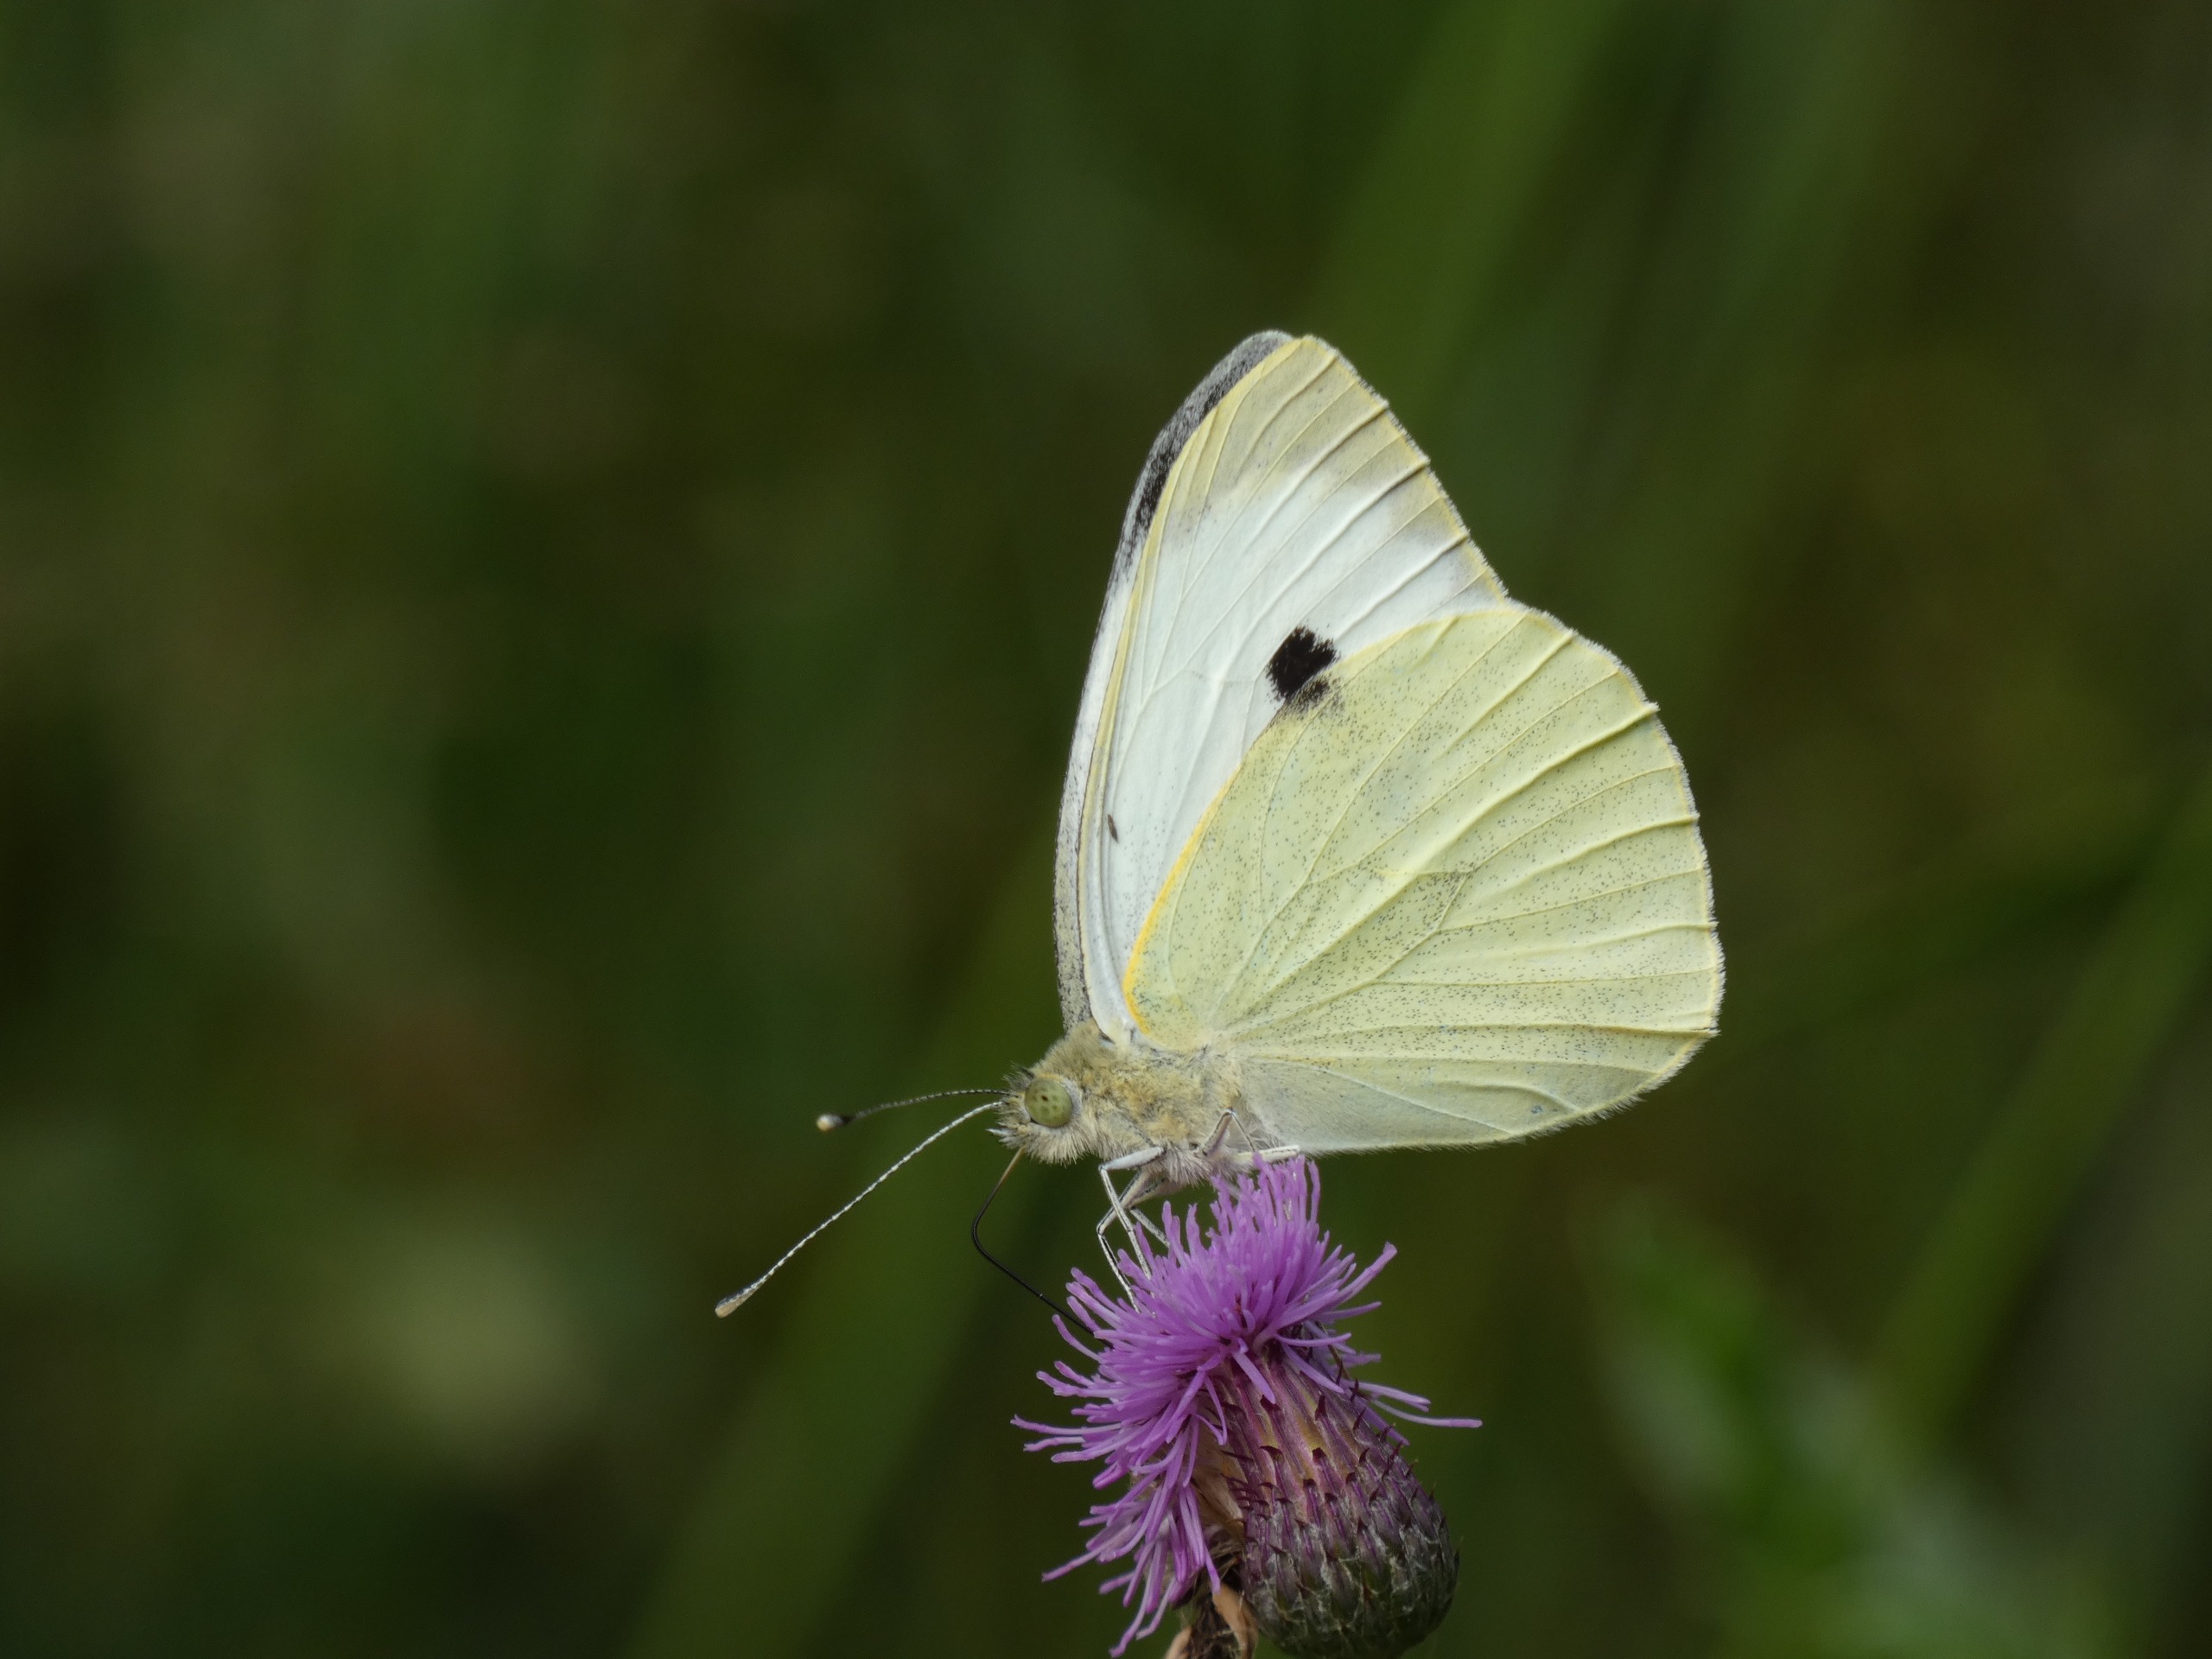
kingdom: Animalia
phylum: Arthropoda
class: Insecta
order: Lepidoptera
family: Pieridae
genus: Pieris
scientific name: Pieris brassicae
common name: Stor kålsommerfugl
